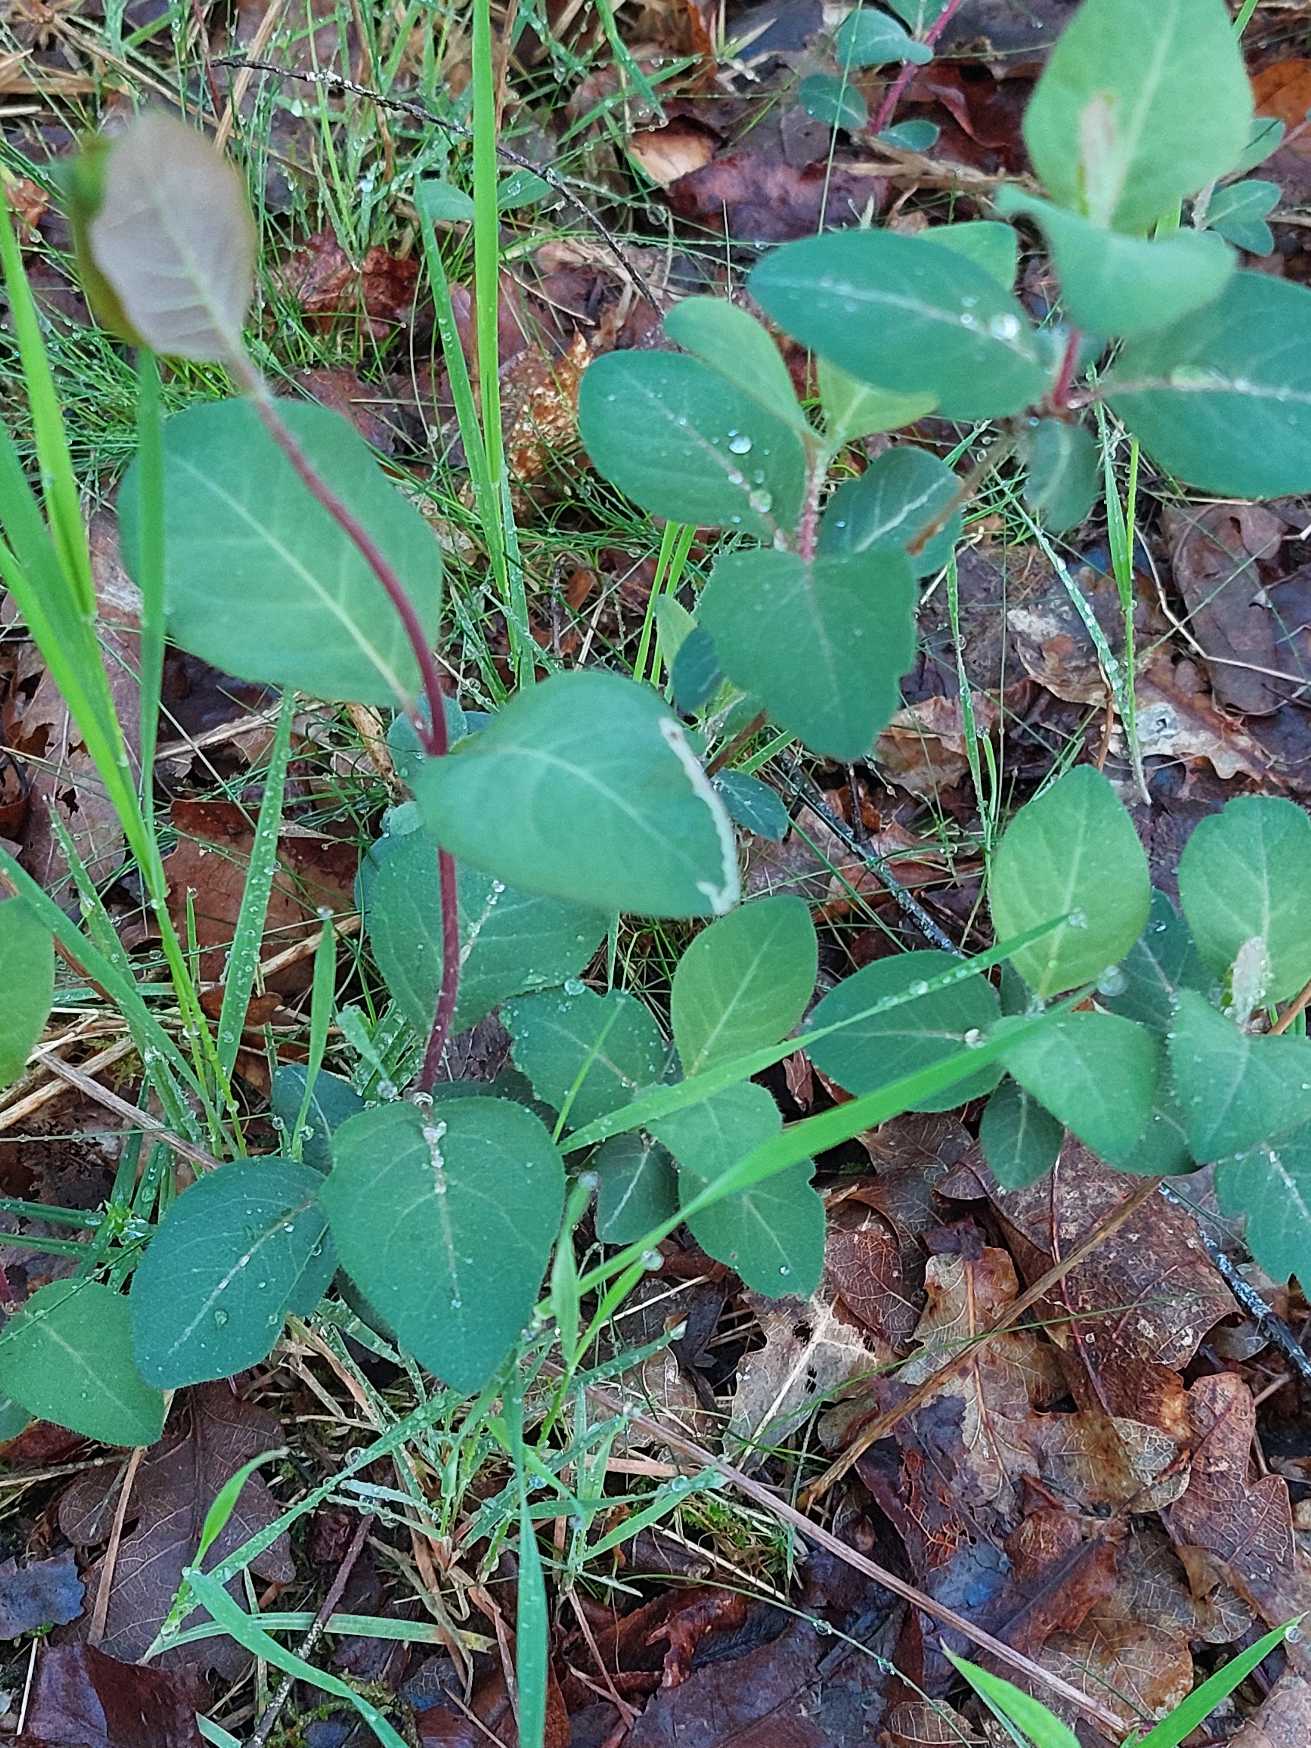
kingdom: Plantae
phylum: Tracheophyta
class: Magnoliopsida
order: Dipsacales
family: Caprifoliaceae
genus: Lonicera
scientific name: Lonicera periclymenum
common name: Almindelig gedeblad
